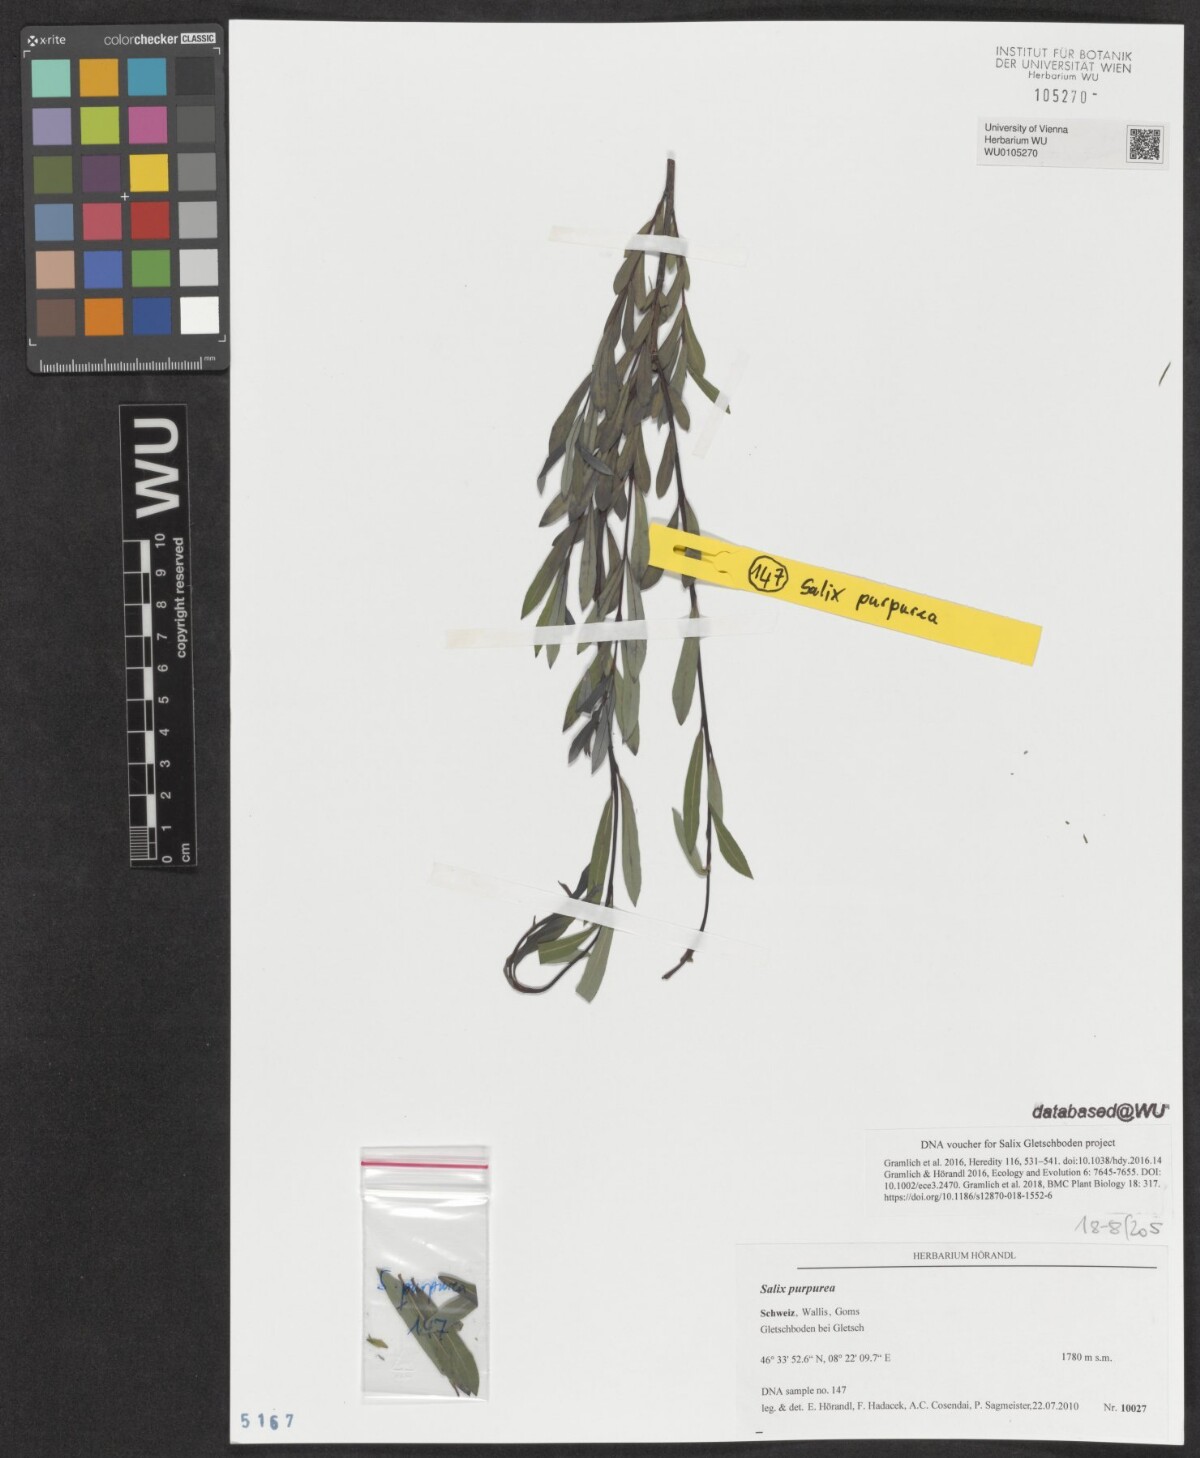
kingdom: Plantae
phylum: Tracheophyta
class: Magnoliopsida
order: Malpighiales
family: Salicaceae
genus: Salix
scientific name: Salix purpurea
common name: Purple willow
